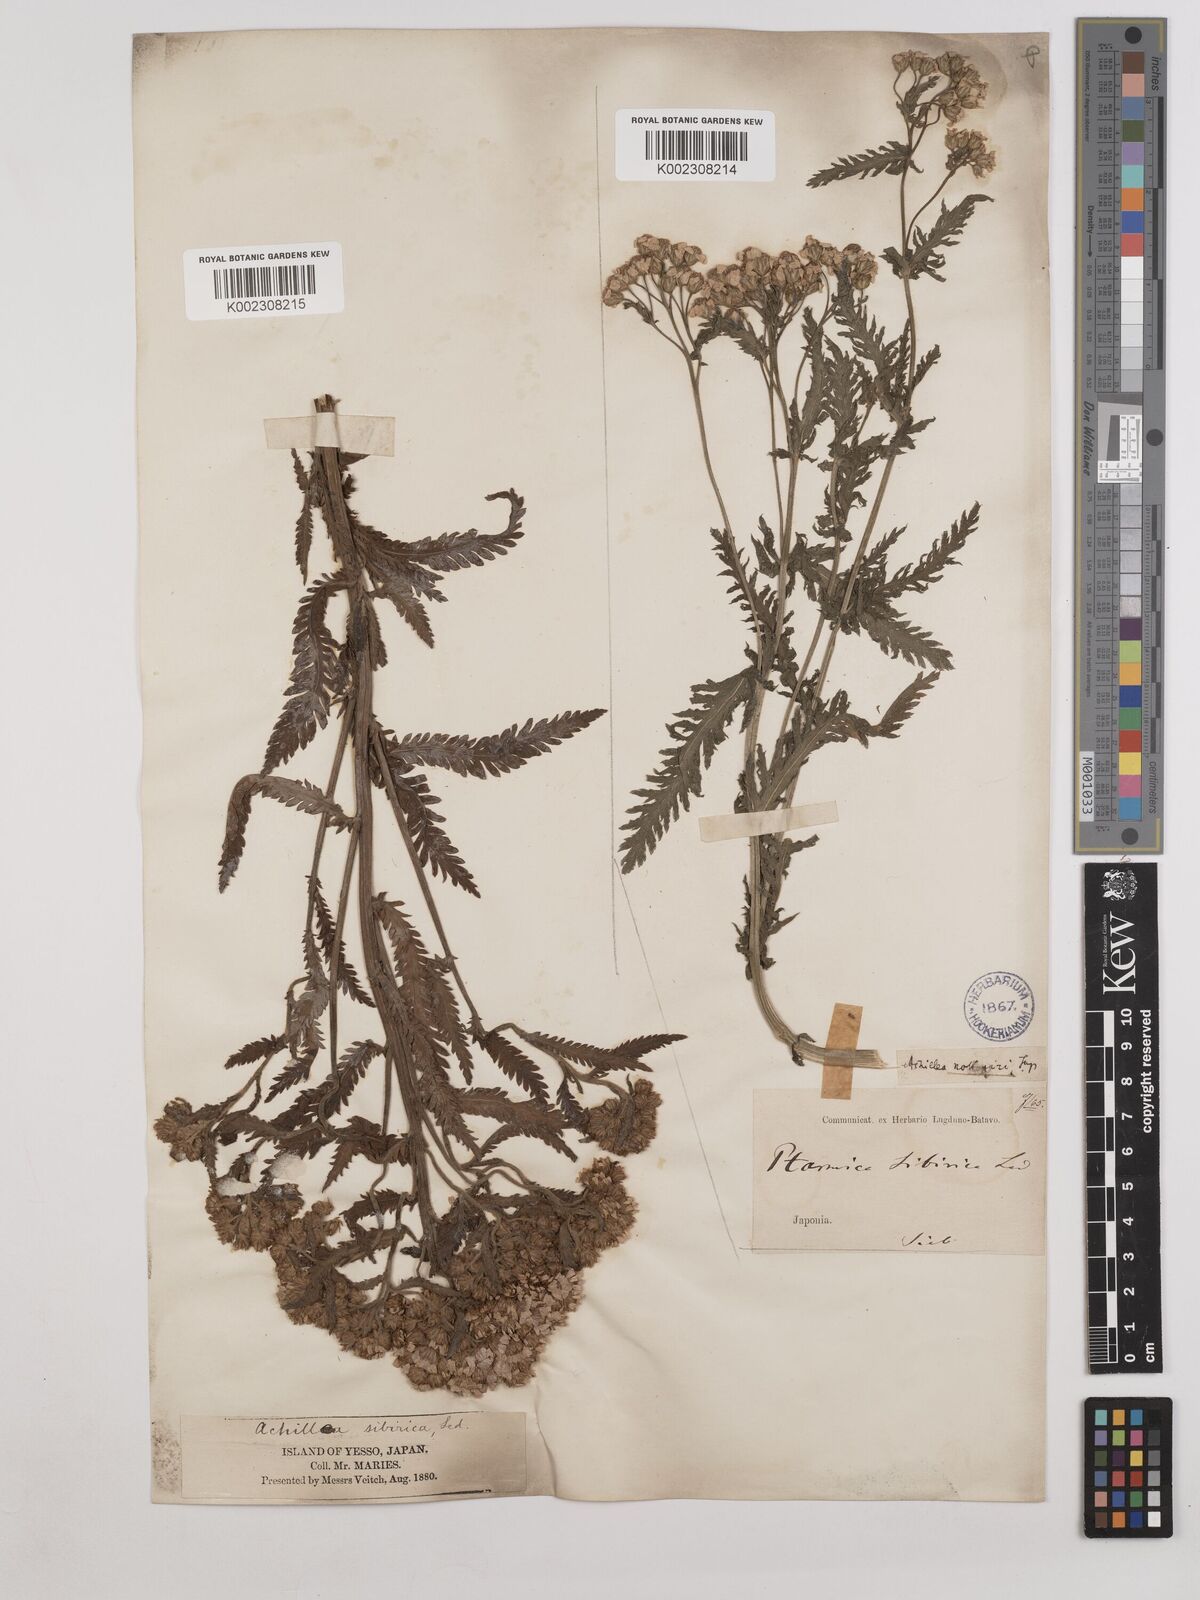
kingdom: Plantae
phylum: Tracheophyta
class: Magnoliopsida
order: Asterales
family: Asteraceae
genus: Achillea
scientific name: Achillea alpina
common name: Siberian yarrow
